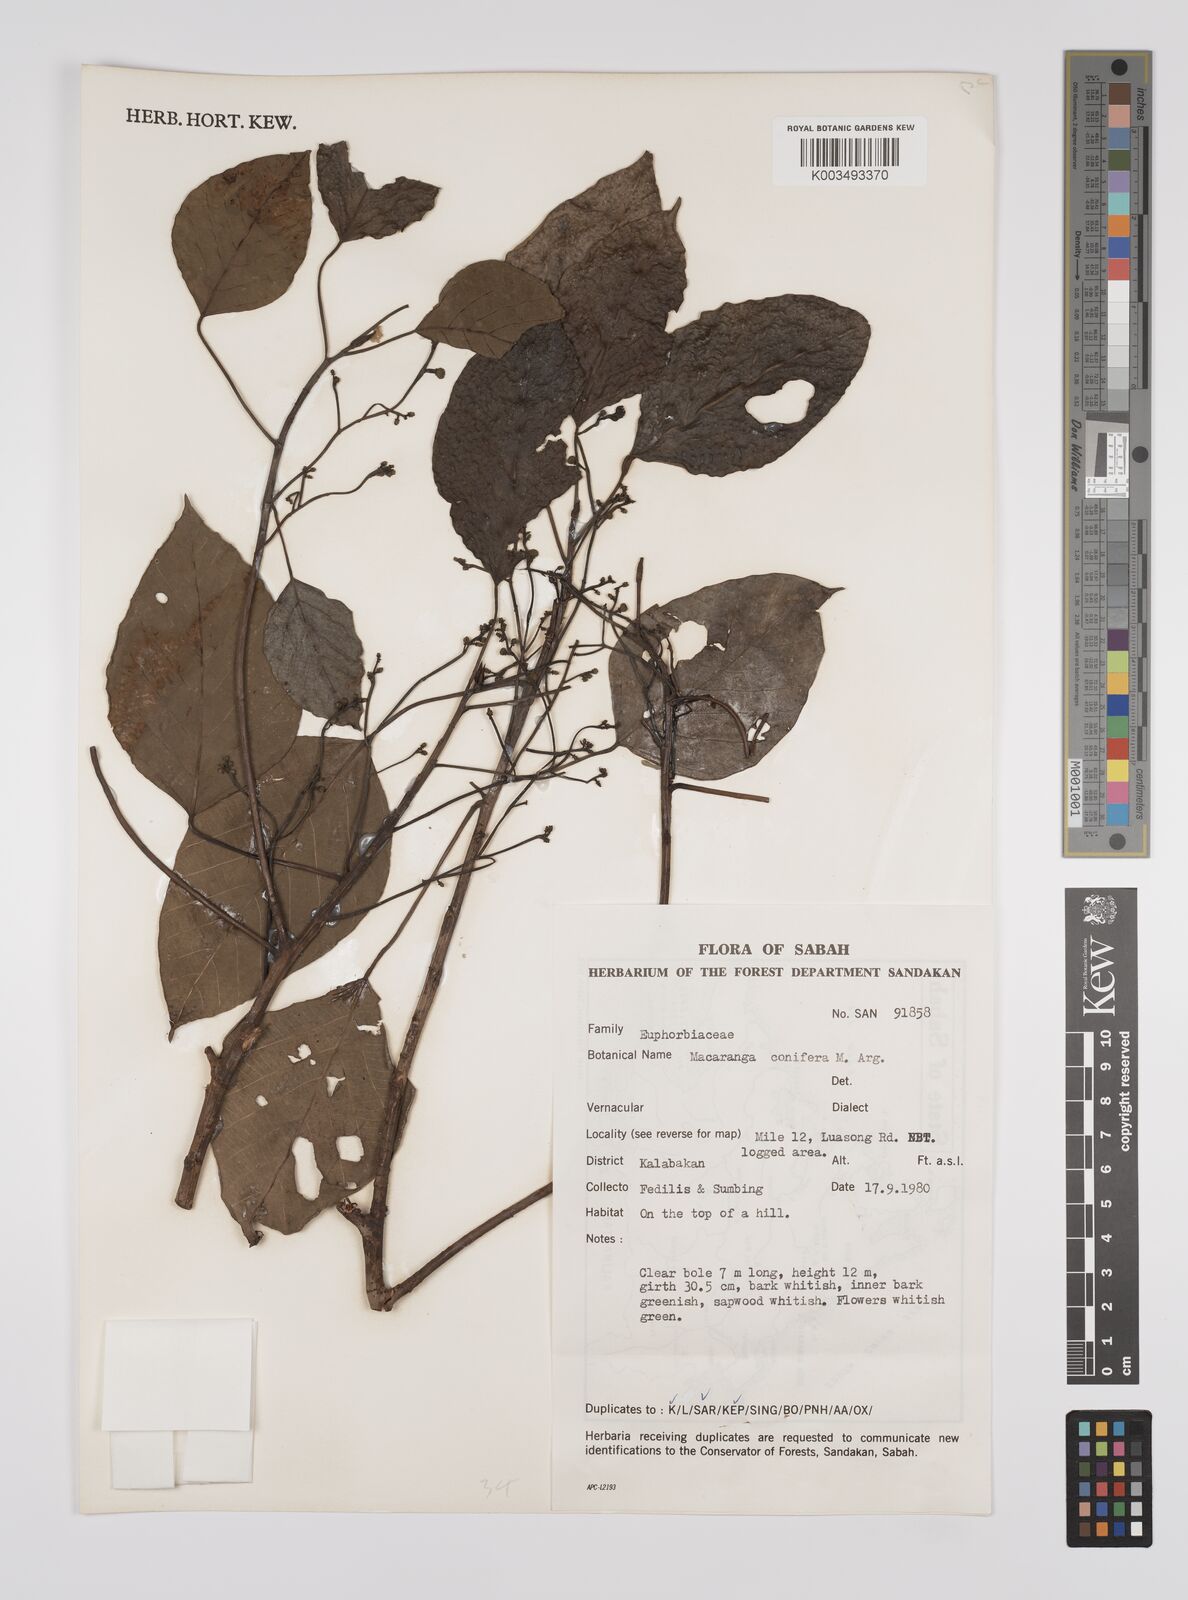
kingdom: Plantae
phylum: Tracheophyta
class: Magnoliopsida
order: Malpighiales
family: Euphorbiaceae
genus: Macaranga
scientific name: Macaranga conifera
